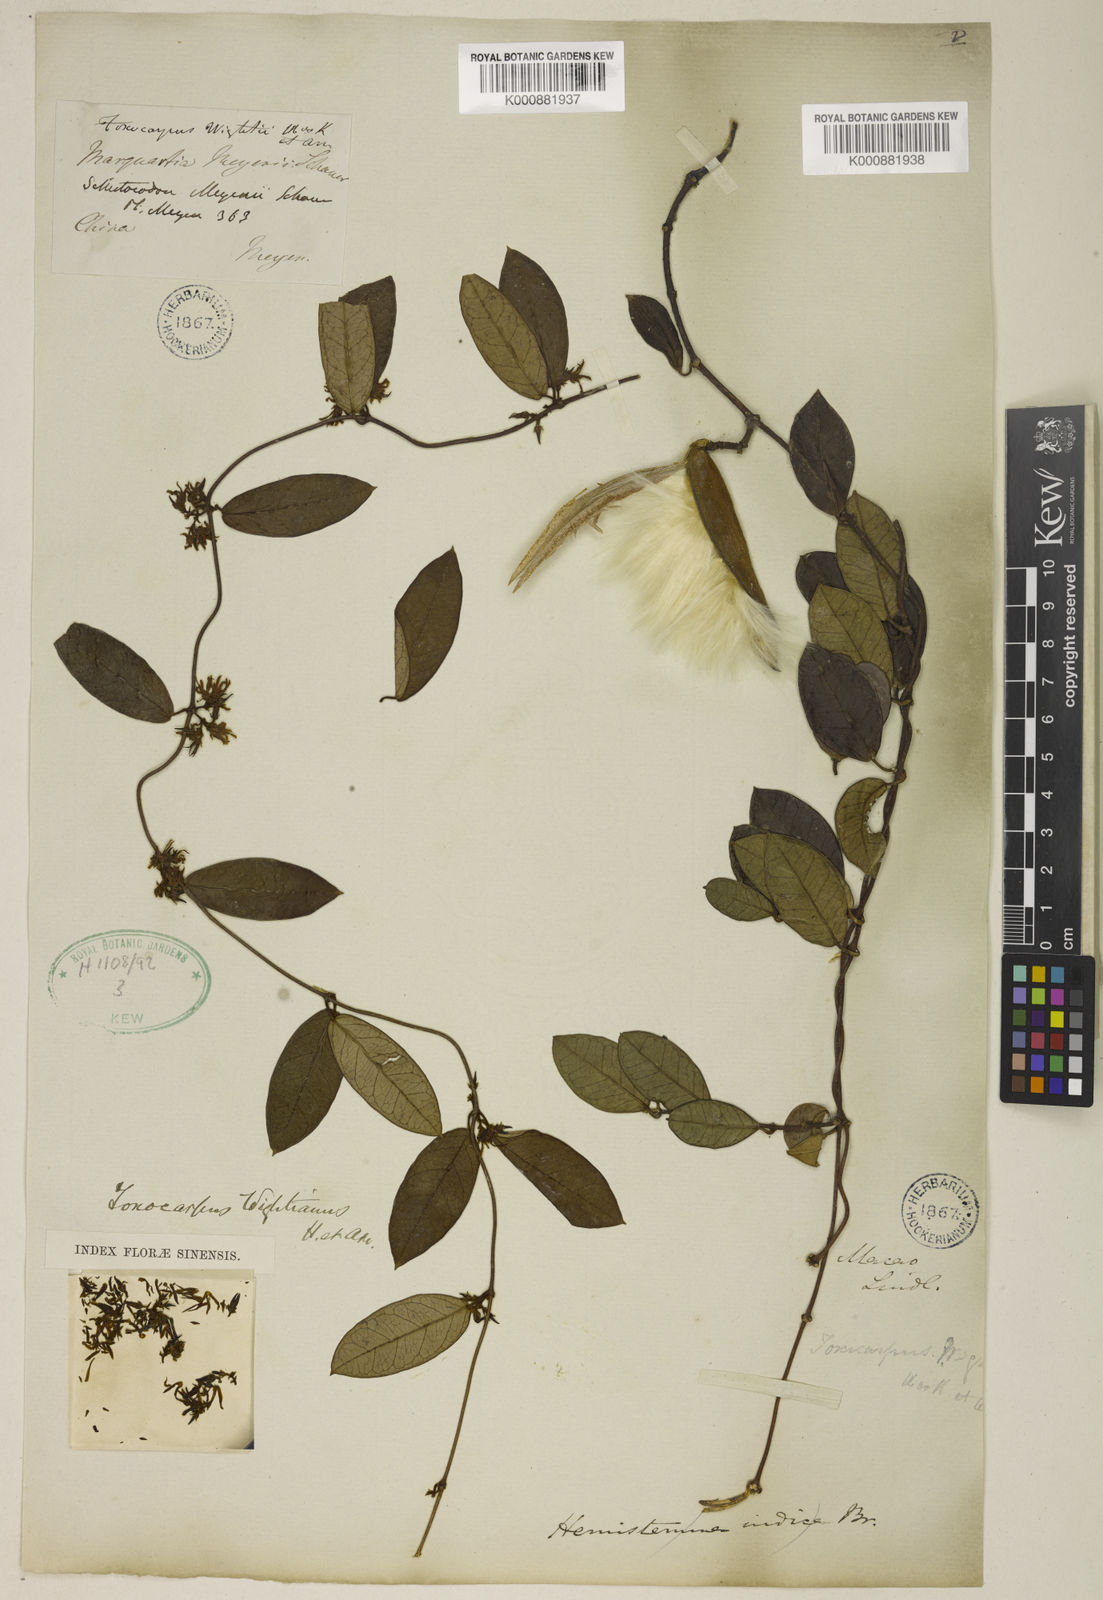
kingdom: Plantae
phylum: Tracheophyta
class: Magnoliopsida
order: Gentianales
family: Apocynaceae
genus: Toxocarpus
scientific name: Toxocarpus wightianus
